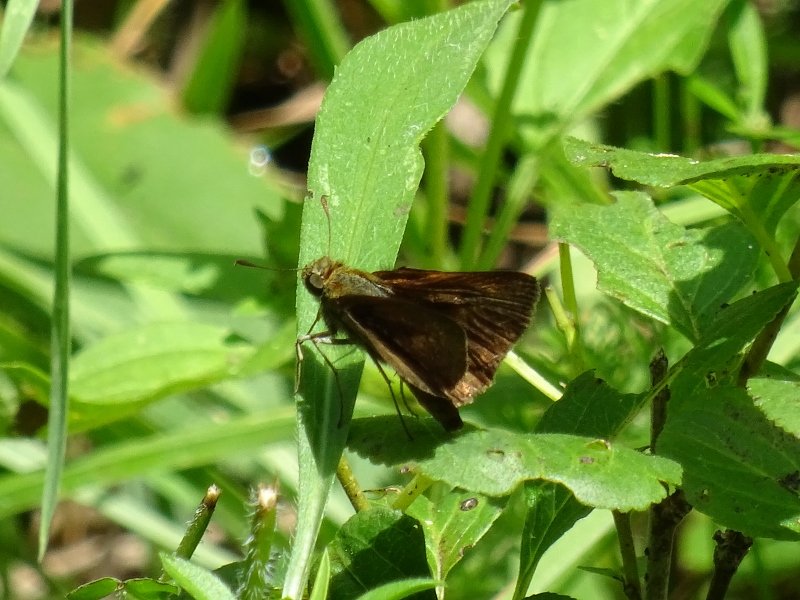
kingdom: Animalia
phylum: Arthropoda
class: Insecta
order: Lepidoptera
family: Hesperiidae
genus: Euphyes
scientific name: Euphyes vestris
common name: Dun Skipper
